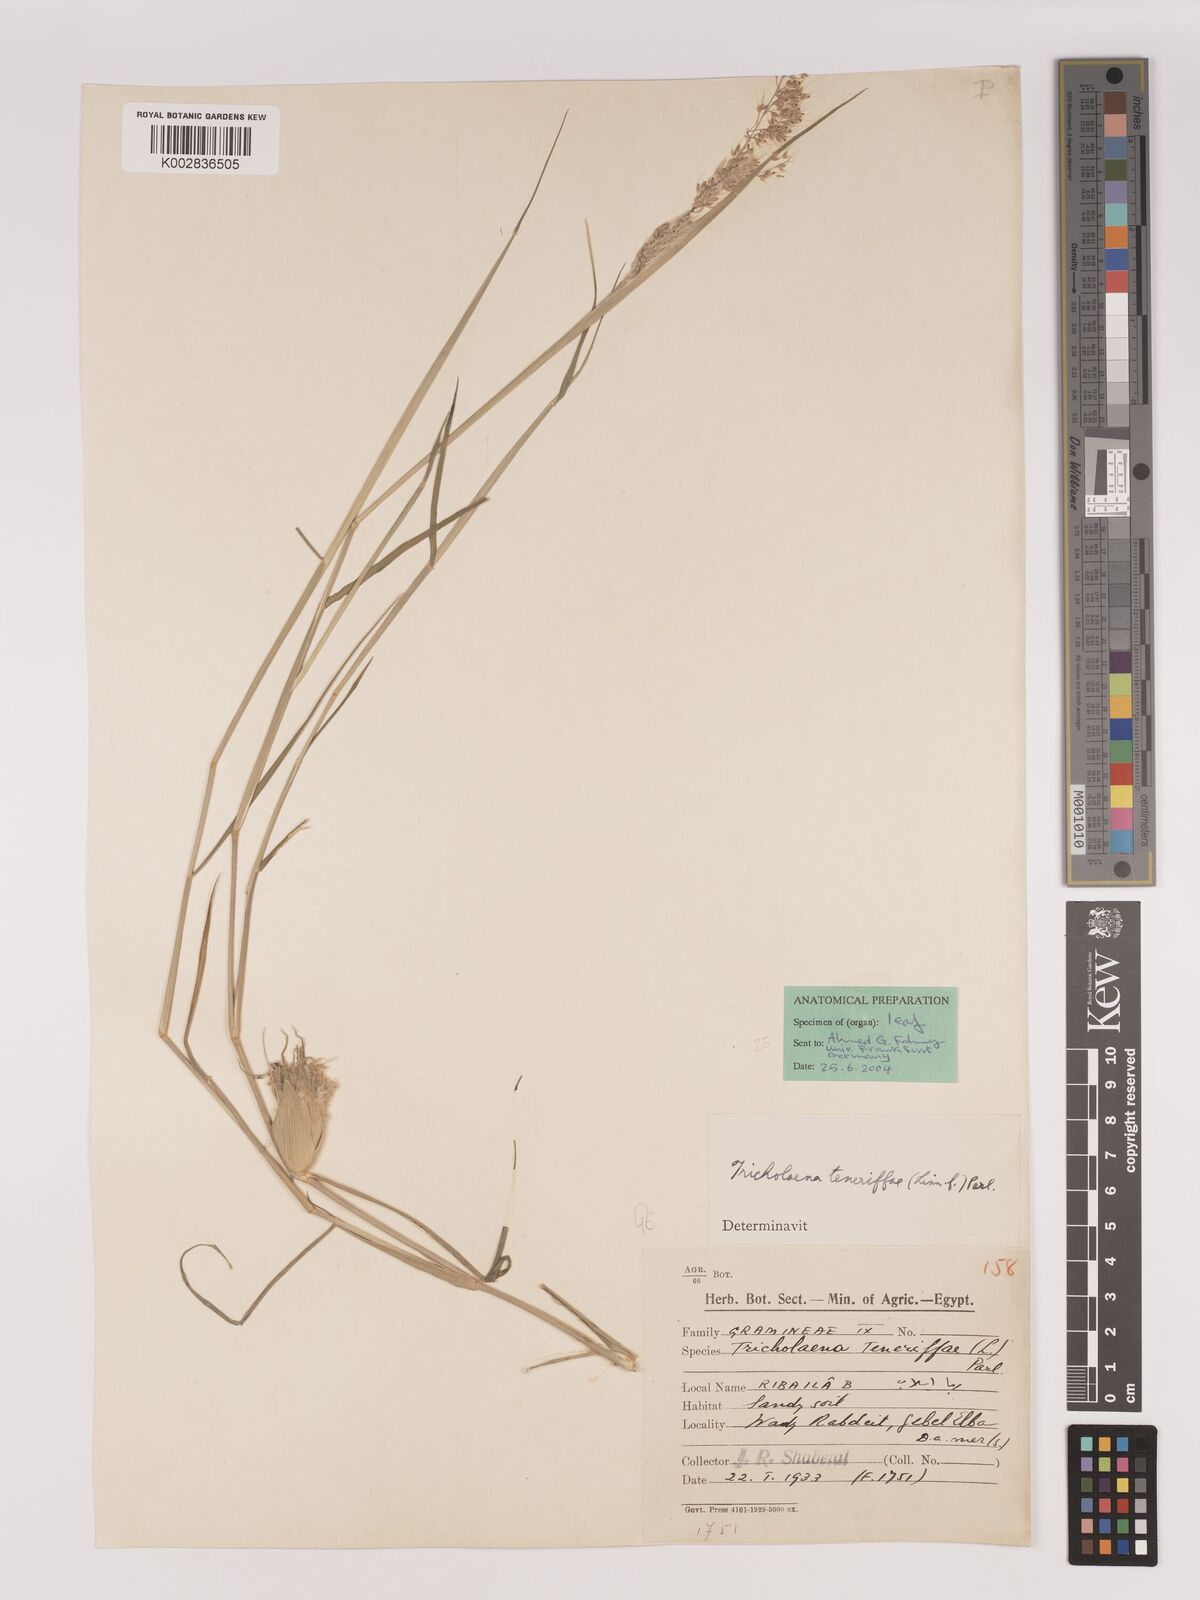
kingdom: Plantae
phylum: Tracheophyta
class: Liliopsida
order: Poales
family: Poaceae
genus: Tricholaena
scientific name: Tricholaena teneriffae
